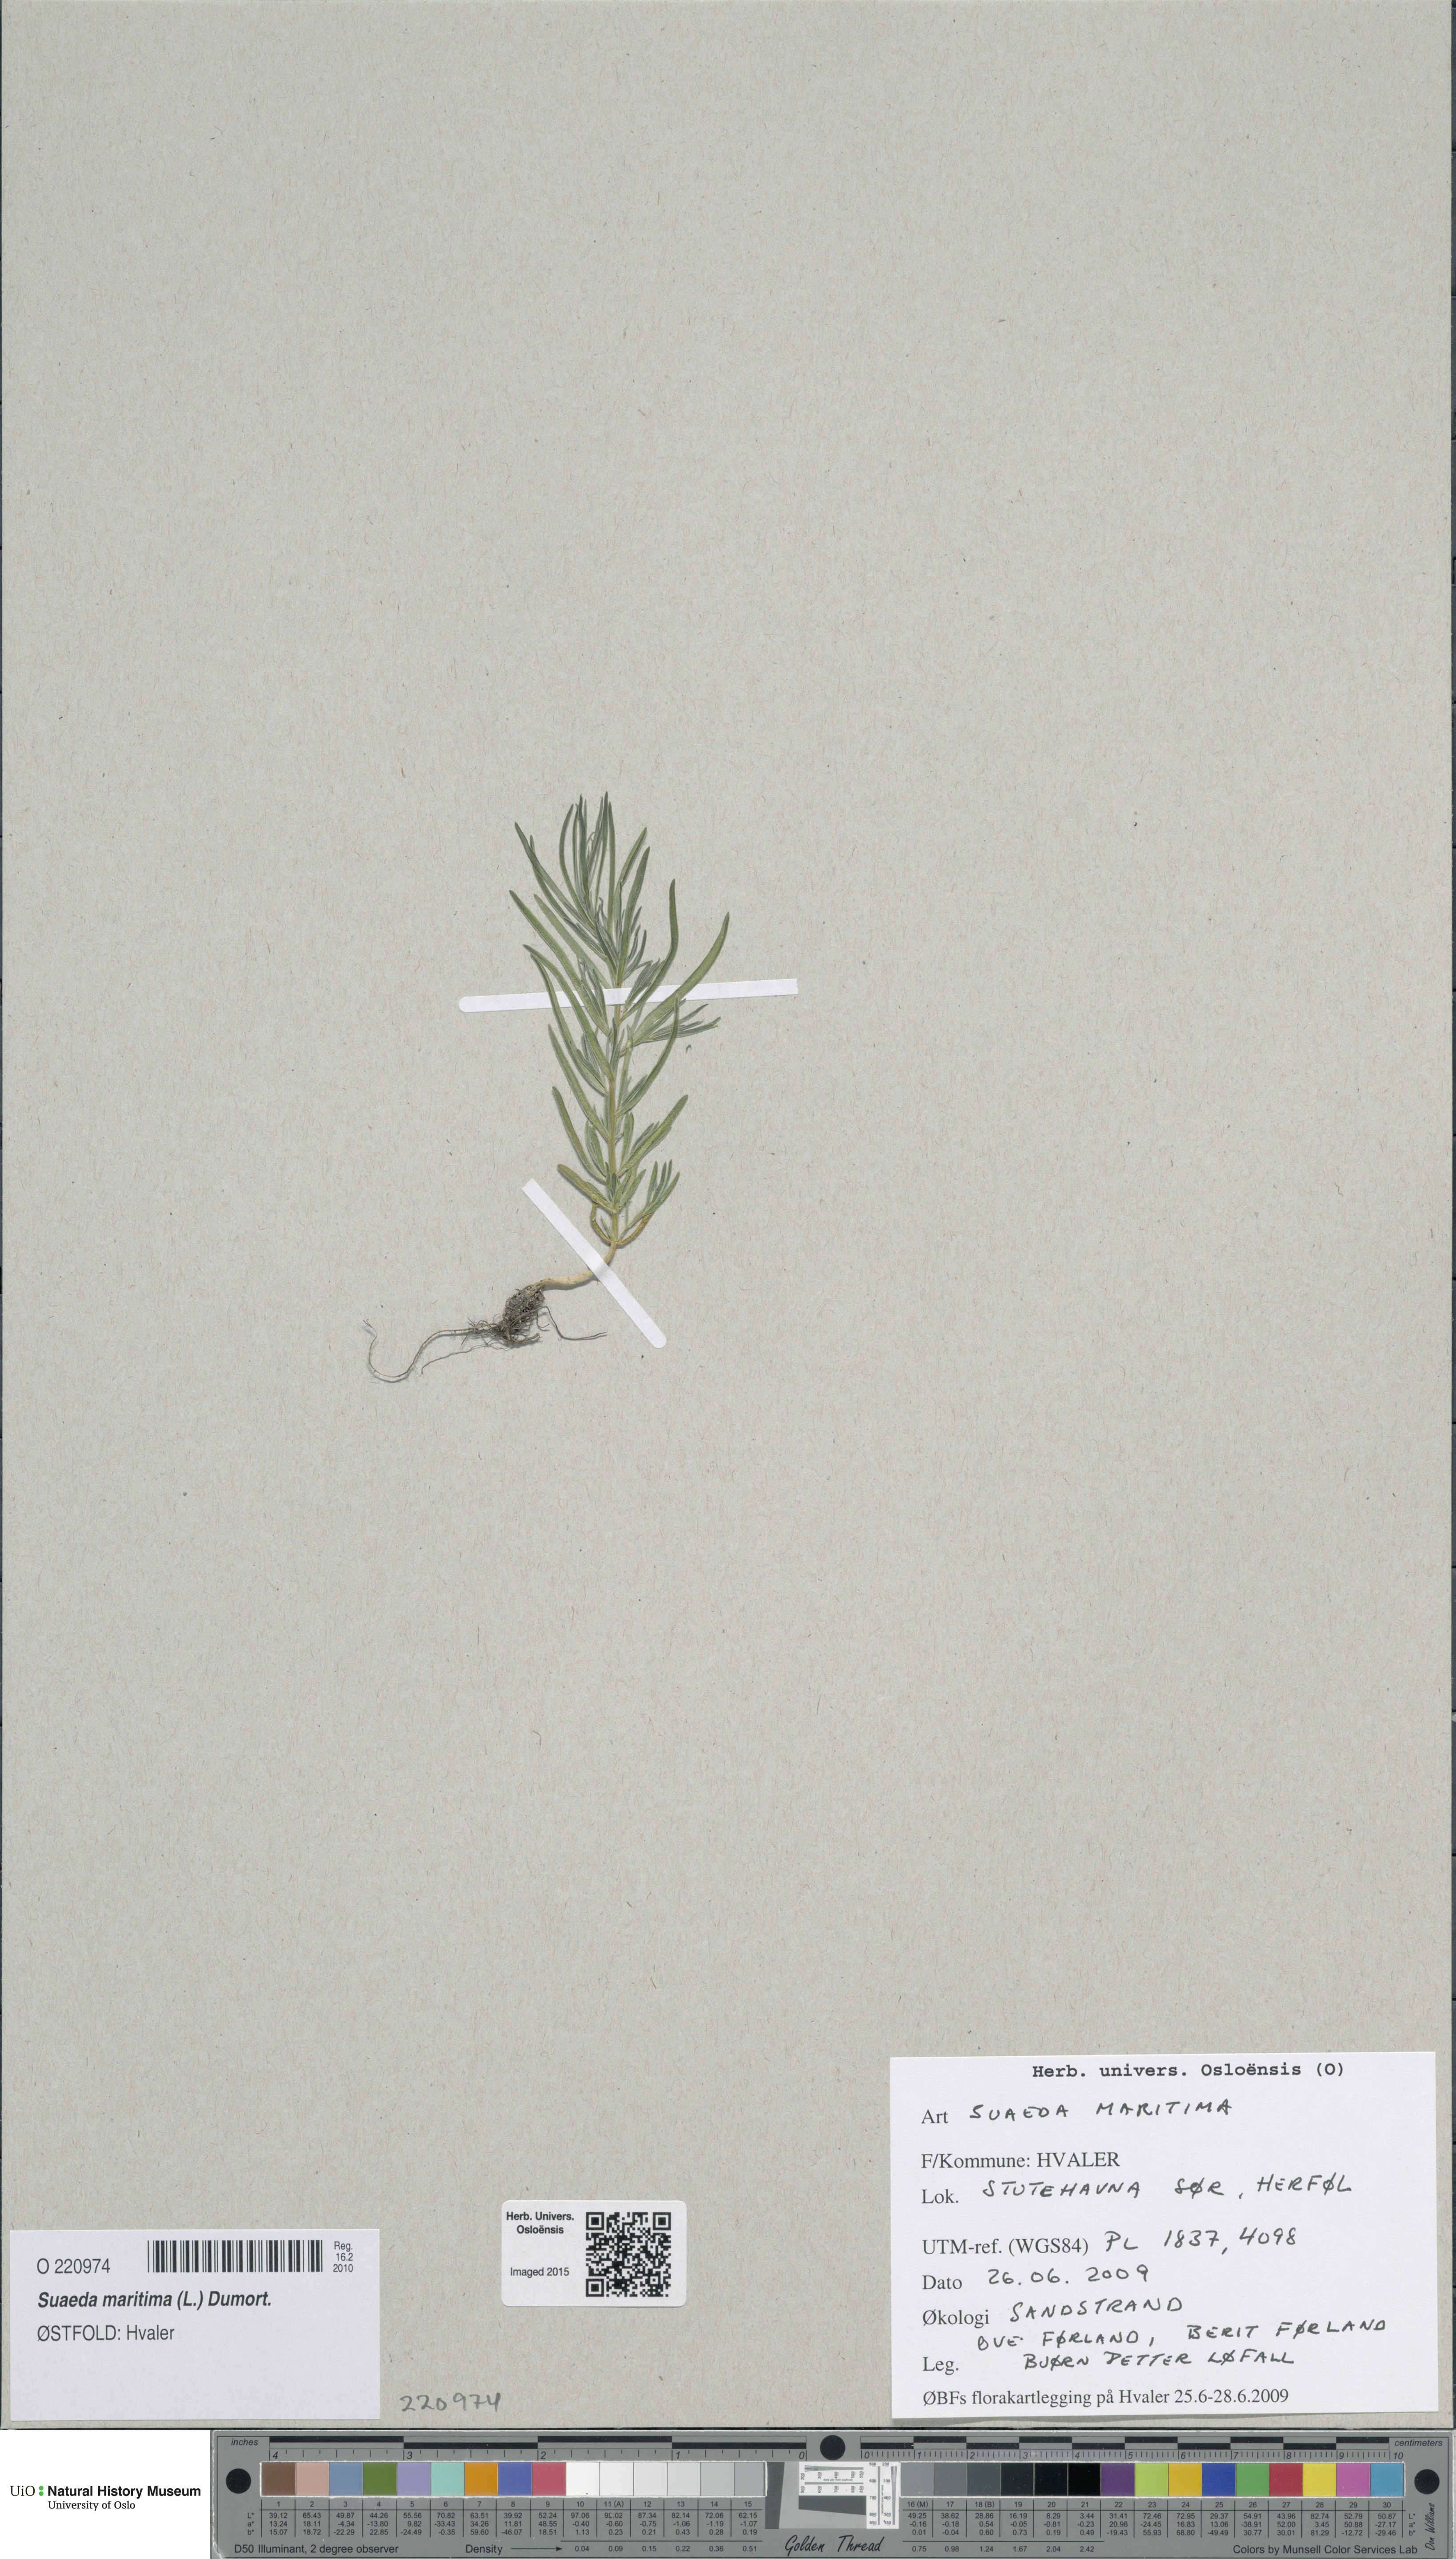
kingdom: Plantae
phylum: Tracheophyta
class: Magnoliopsida
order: Caryophyllales
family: Amaranthaceae
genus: Suaeda
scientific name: Suaeda maritima
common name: Annual sea-blite
